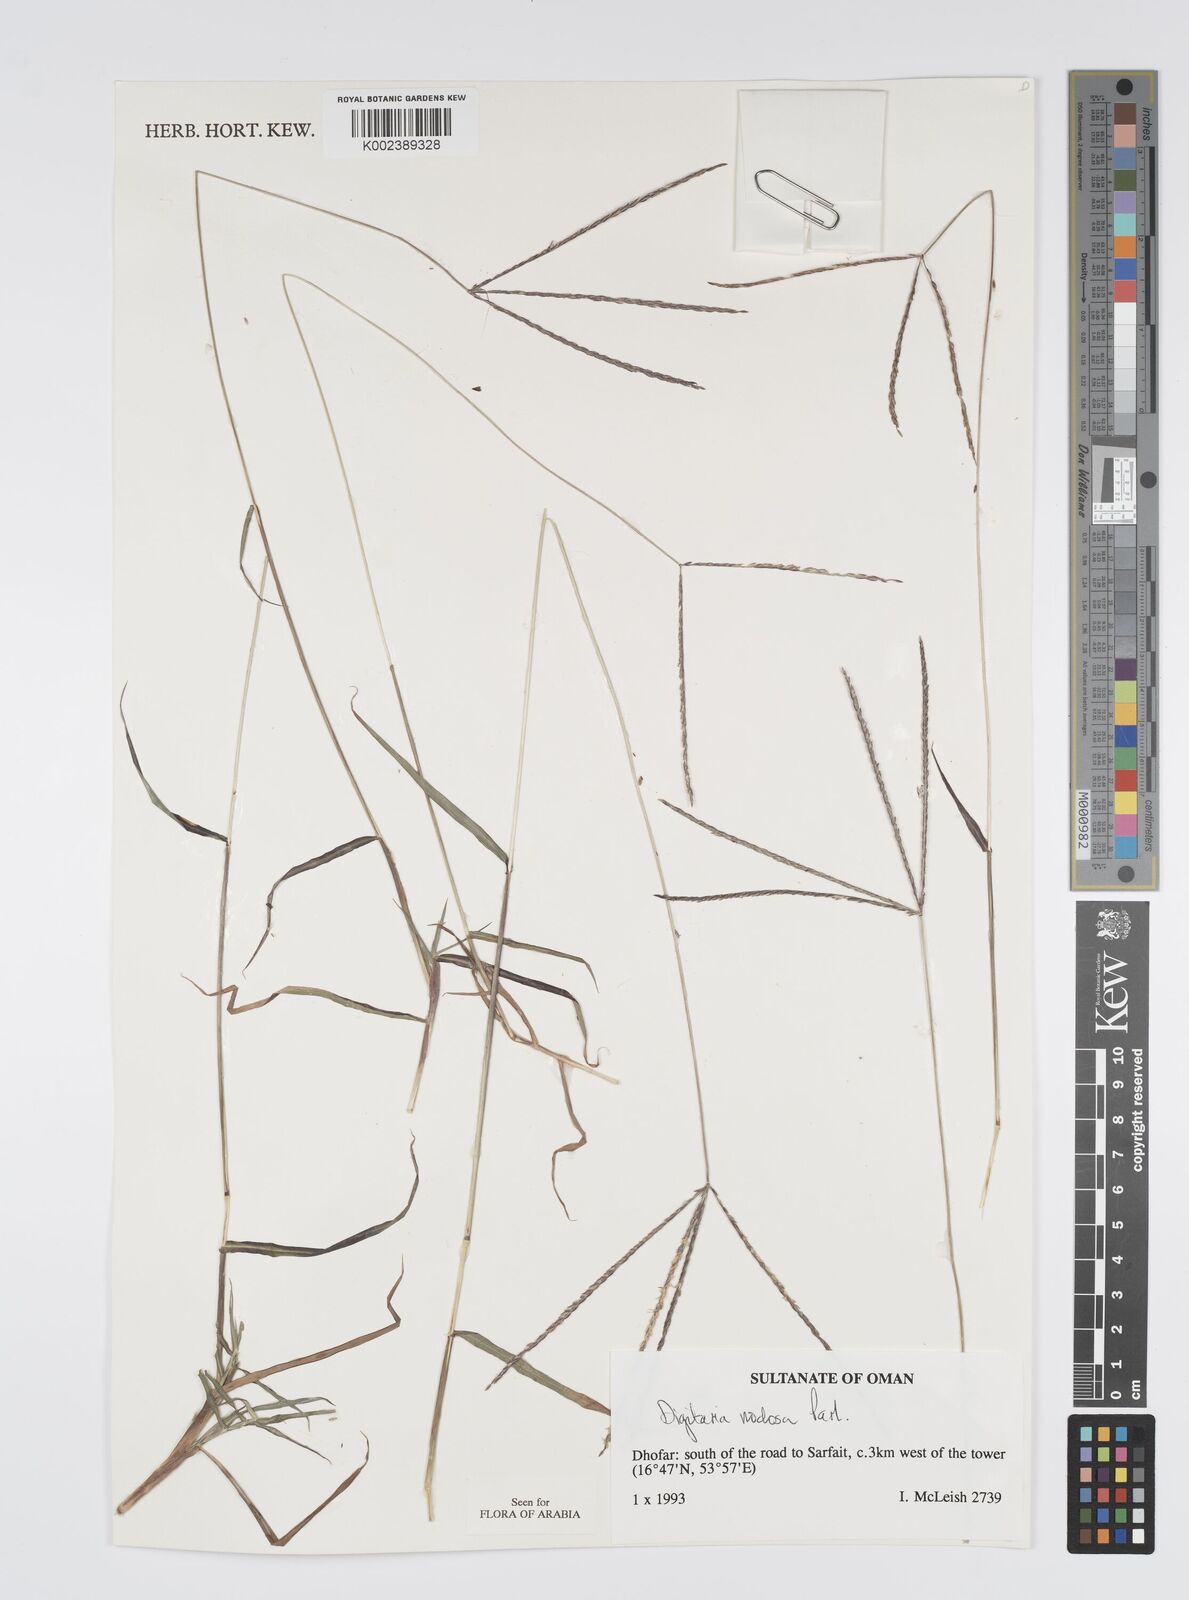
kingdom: Plantae
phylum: Tracheophyta
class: Liliopsida
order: Poales
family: Poaceae
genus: Digitaria
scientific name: Digitaria nodosa
